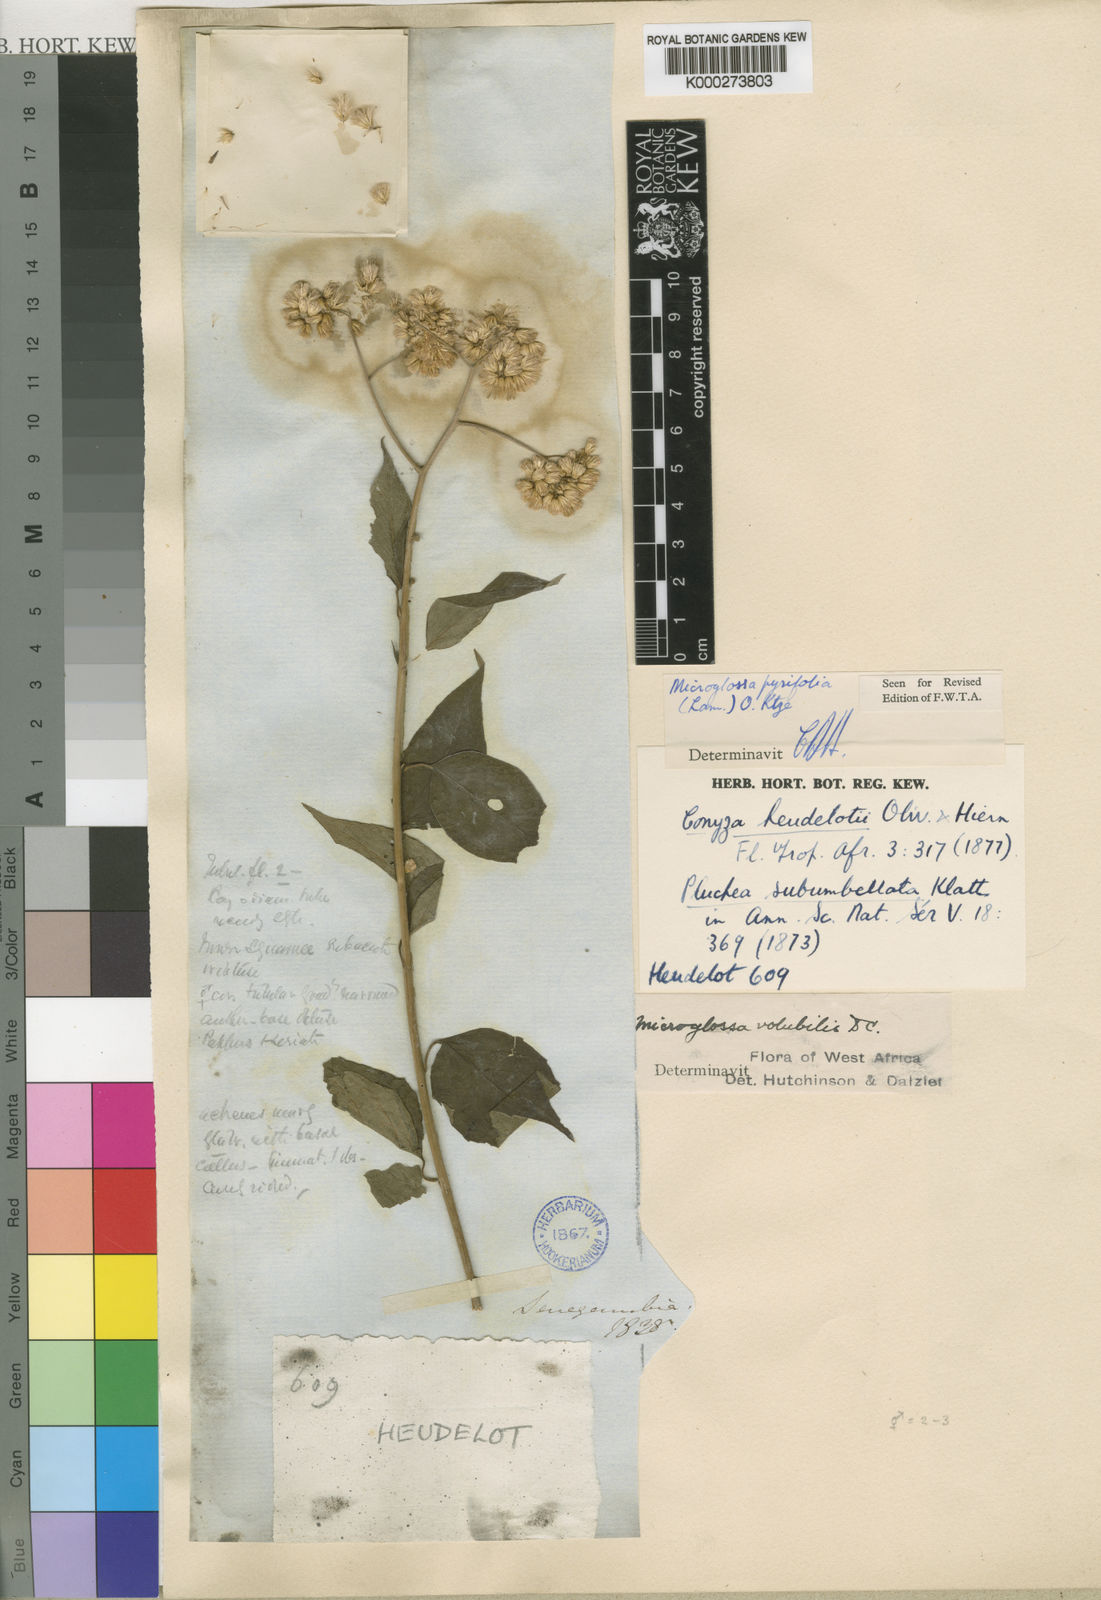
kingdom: Plantae
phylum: Tracheophyta
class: Magnoliopsida
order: Asterales
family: Asteraceae
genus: Microglossa
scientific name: Microglossa pyrifolia
